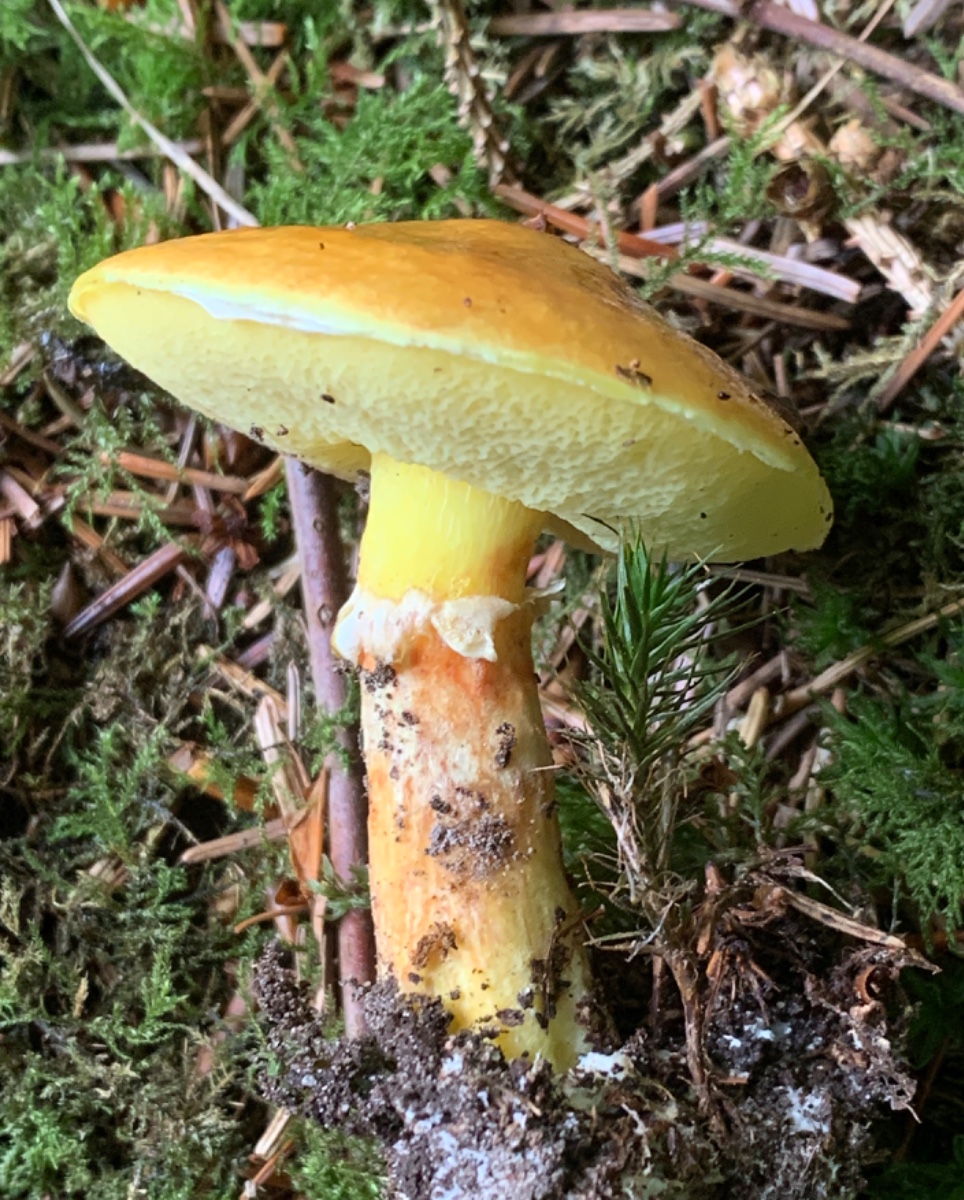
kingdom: Fungi
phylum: Basidiomycota
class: Agaricomycetes
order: Boletales
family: Suillaceae
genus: Suillus
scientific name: Suillus grevillei
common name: lærke-slimrørhat
